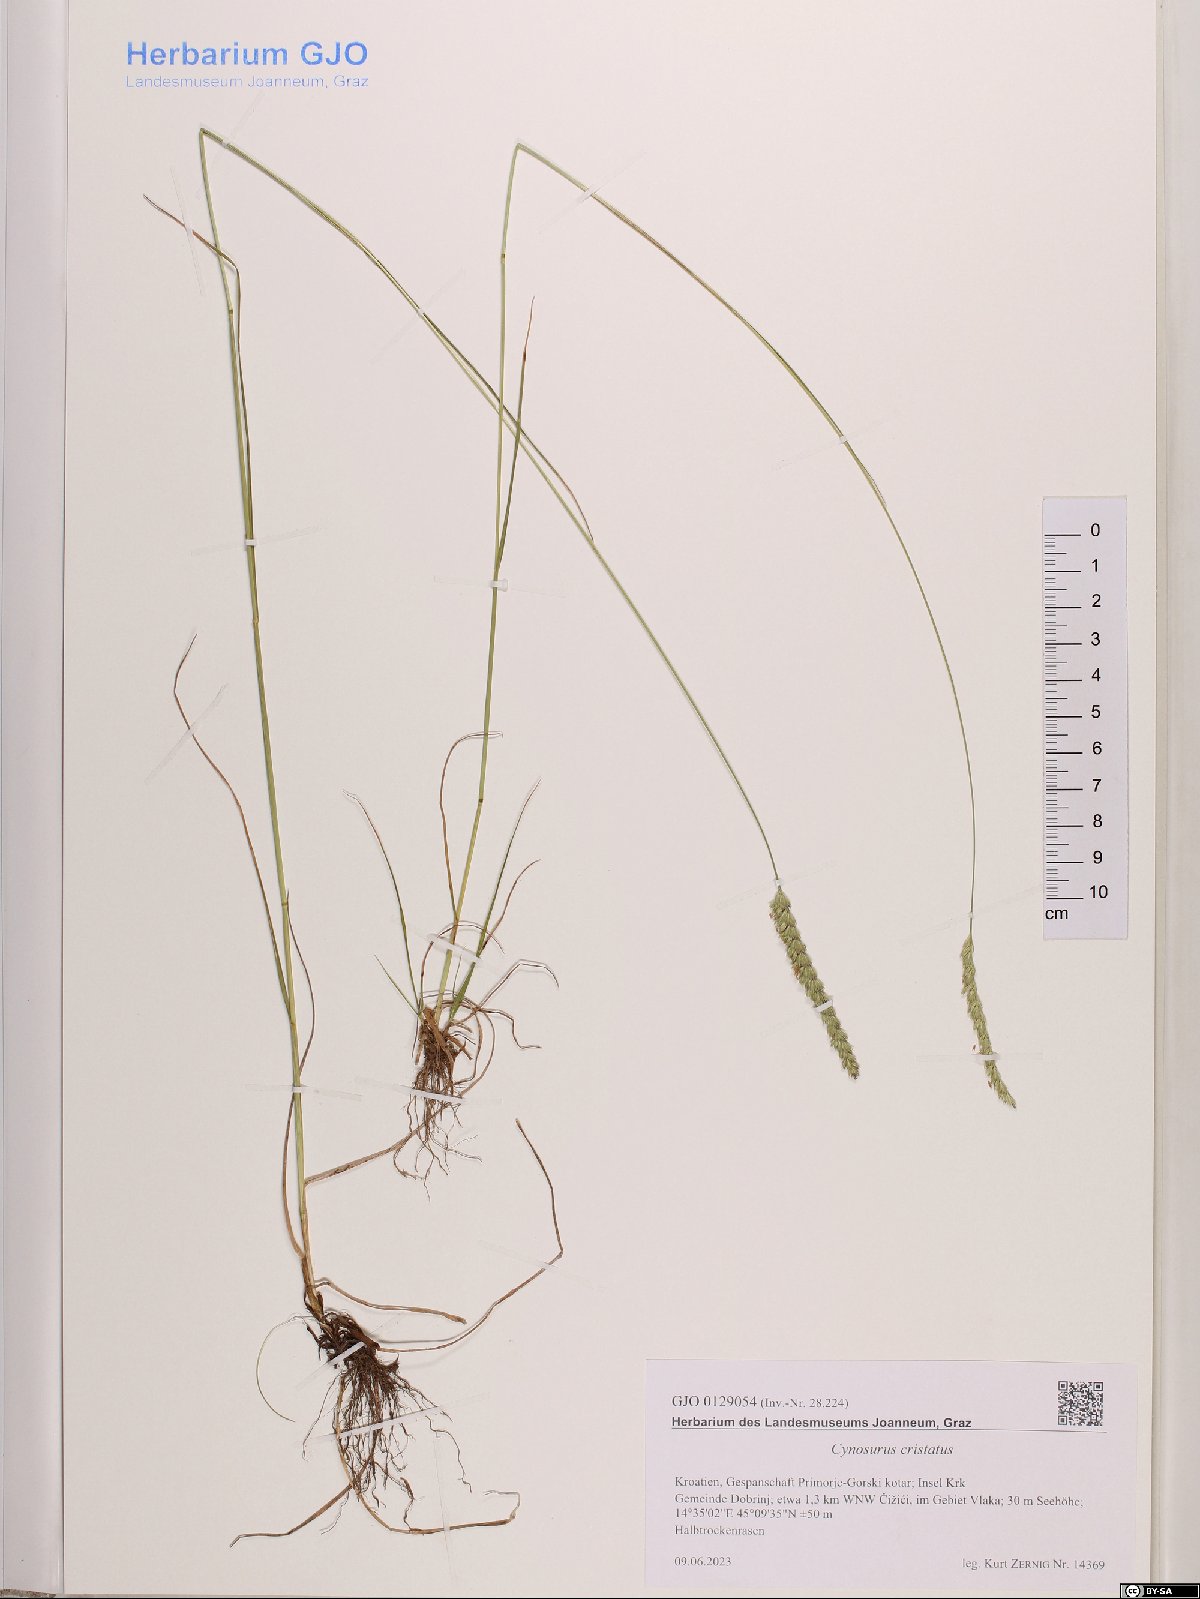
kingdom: Plantae
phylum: Tracheophyta
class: Liliopsida
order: Poales
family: Poaceae
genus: Cynosurus
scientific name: Cynosurus cristatus
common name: Crested dog's-tail
